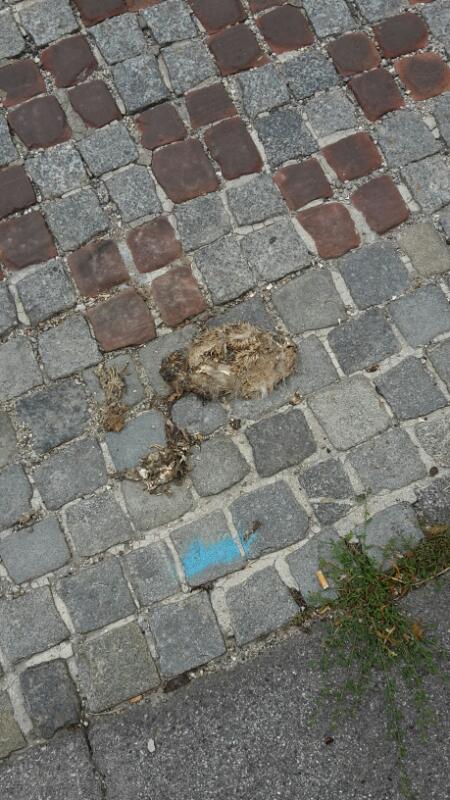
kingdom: Animalia
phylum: Chordata
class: Mammalia
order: Erinaceomorpha
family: Erinaceidae
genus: Erinaceus
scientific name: Erinaceus
